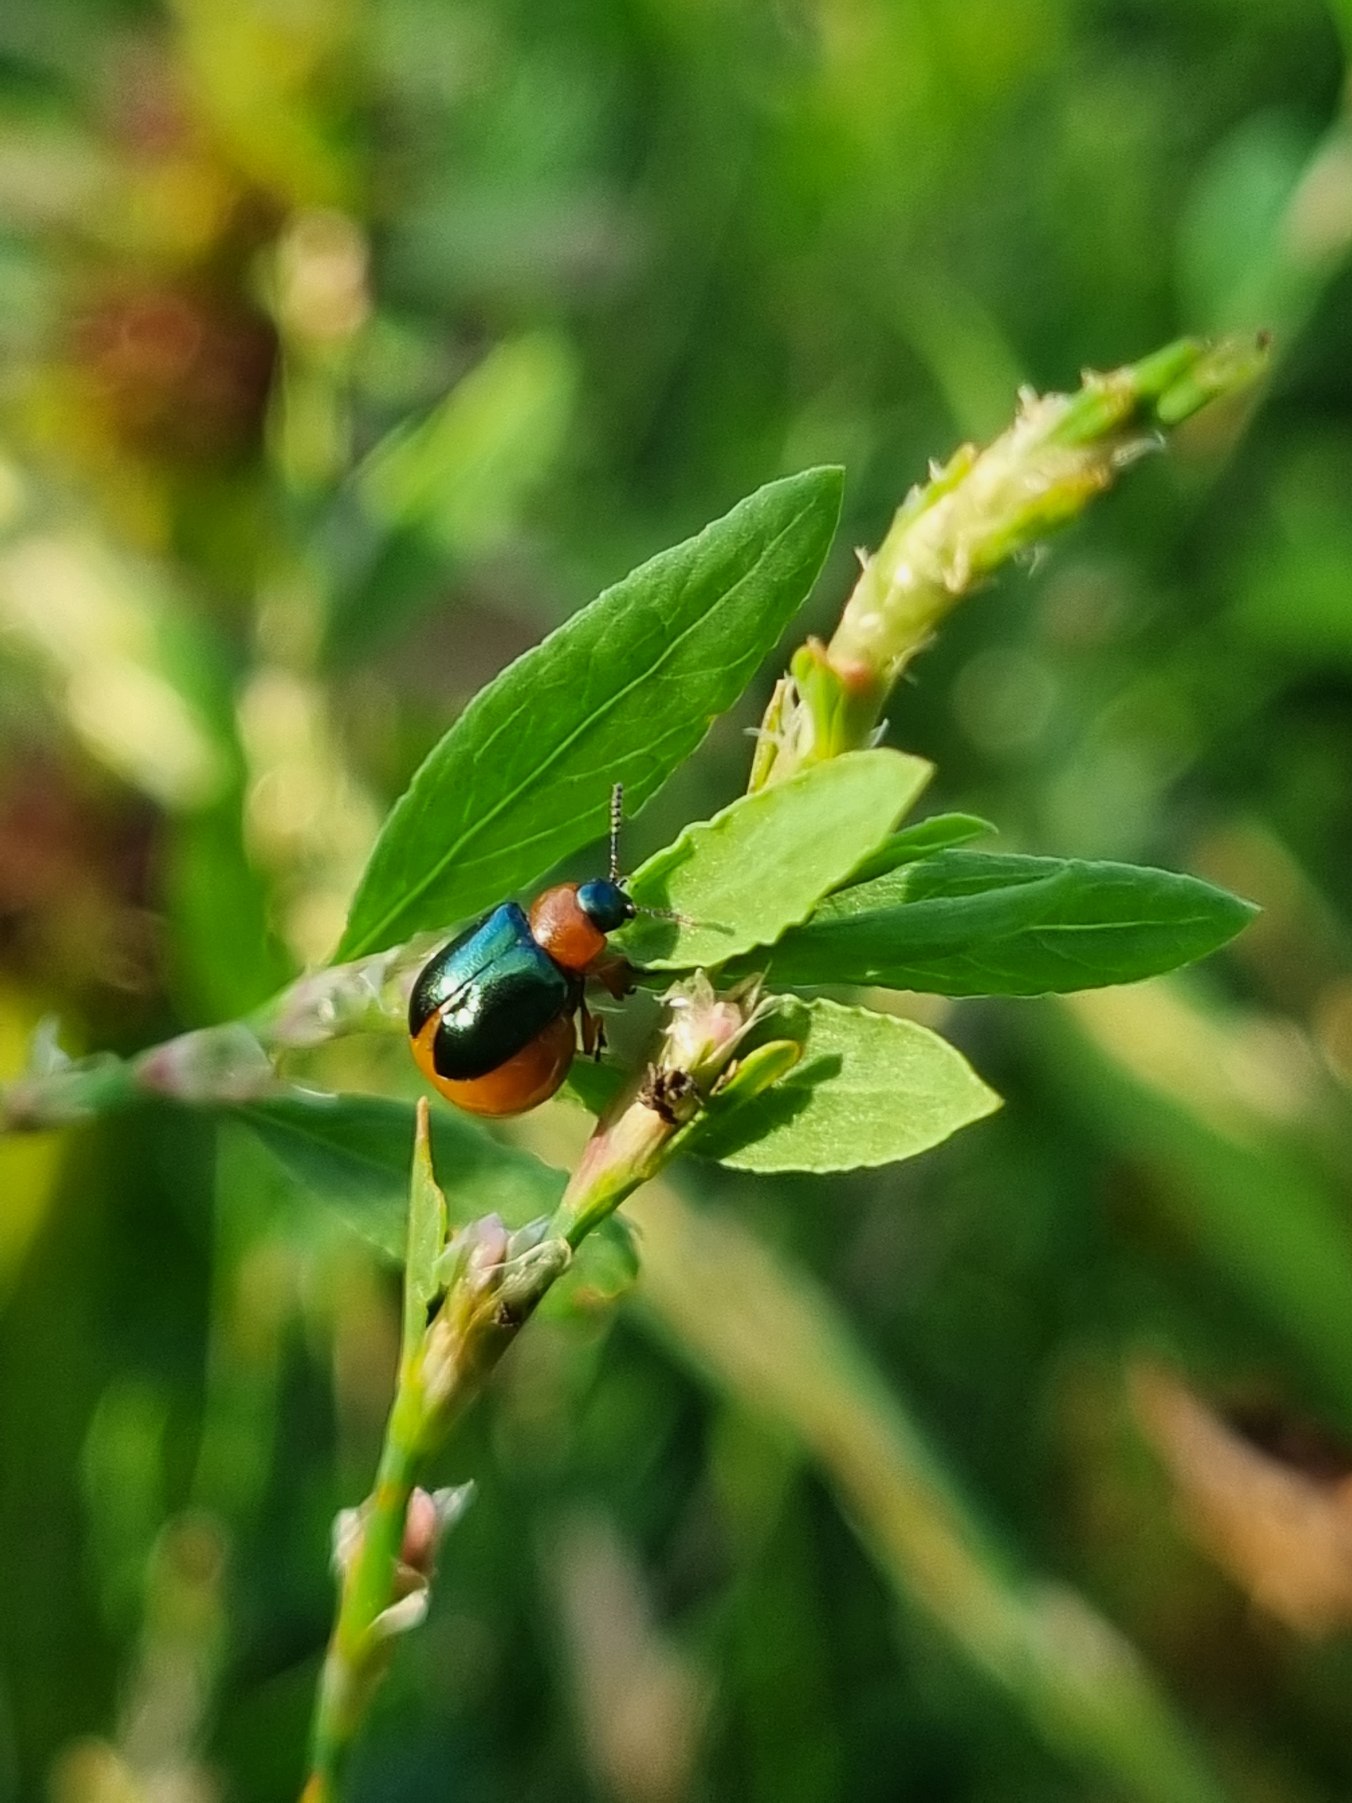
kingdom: Animalia
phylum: Arthropoda
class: Insecta
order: Coleoptera
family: Chrysomelidae
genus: Gastrophysa
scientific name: Gastrophysa polygoni
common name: Pileurtbladbille
